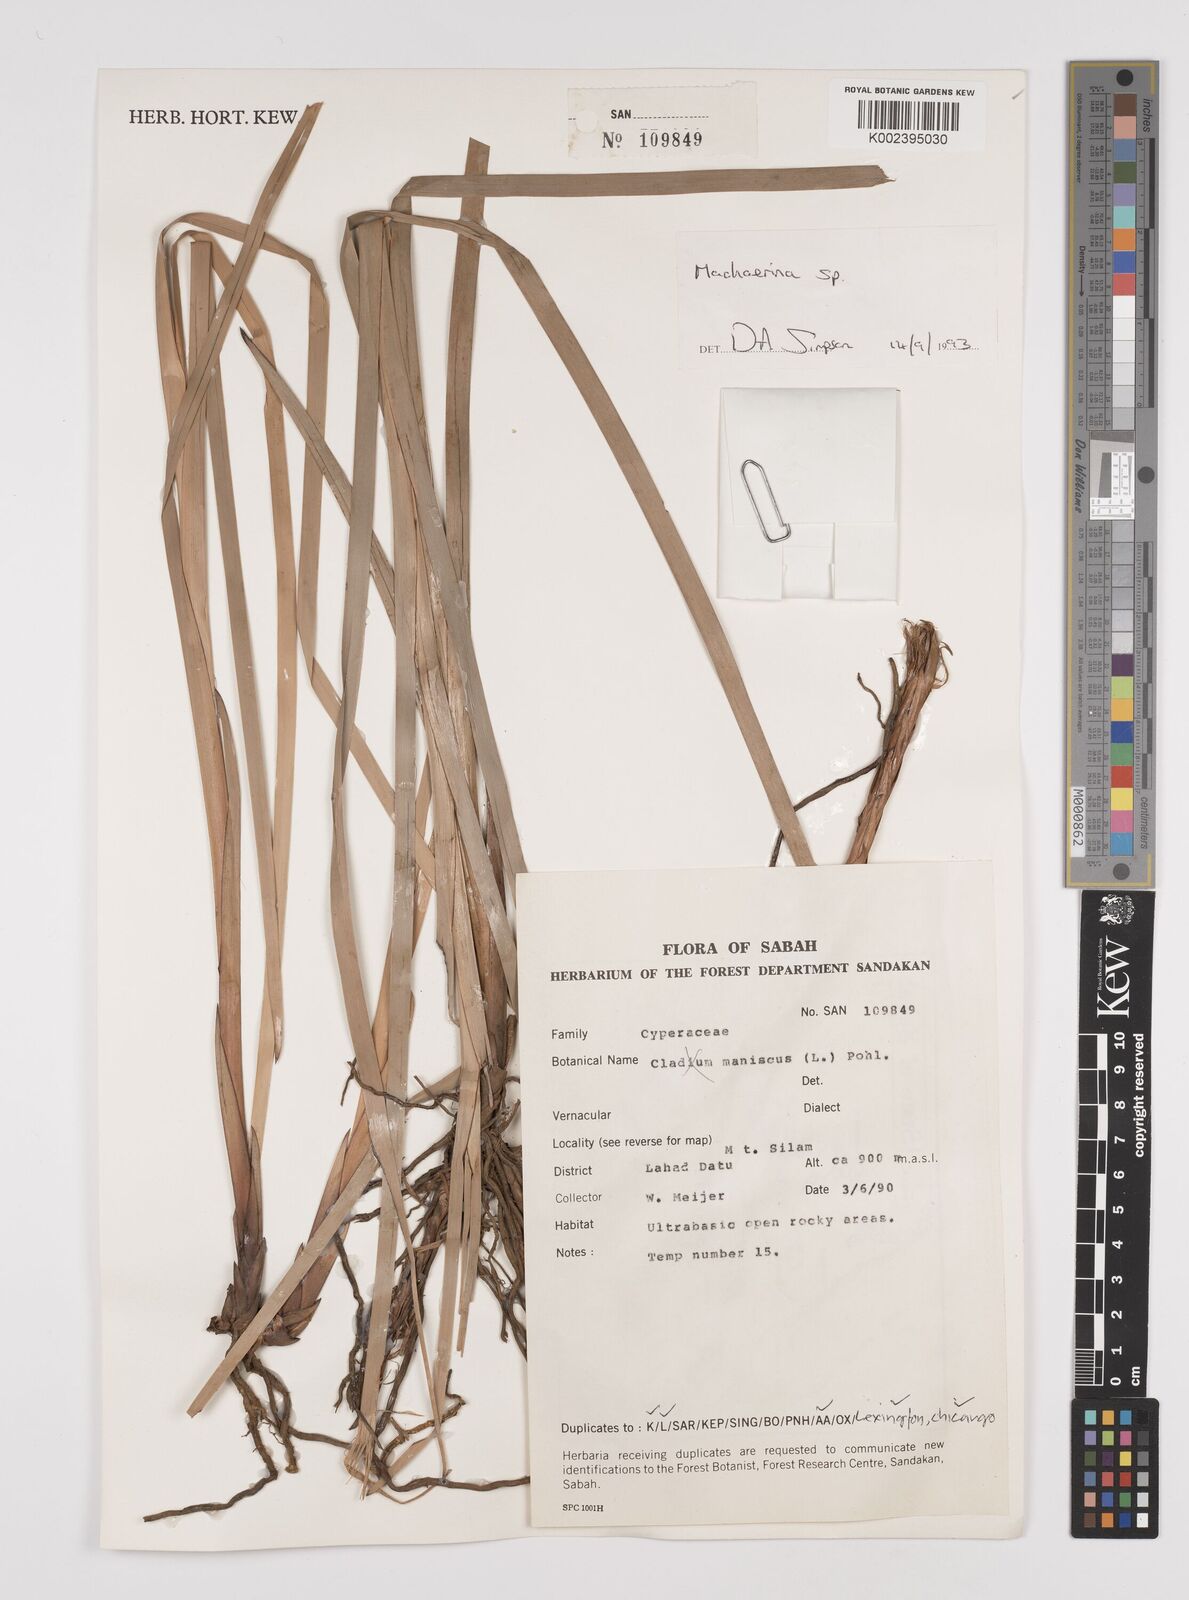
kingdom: Plantae
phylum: Tracheophyta
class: Liliopsida
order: Poales
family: Cyperaceae
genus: Machaerina
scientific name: Machaerina
